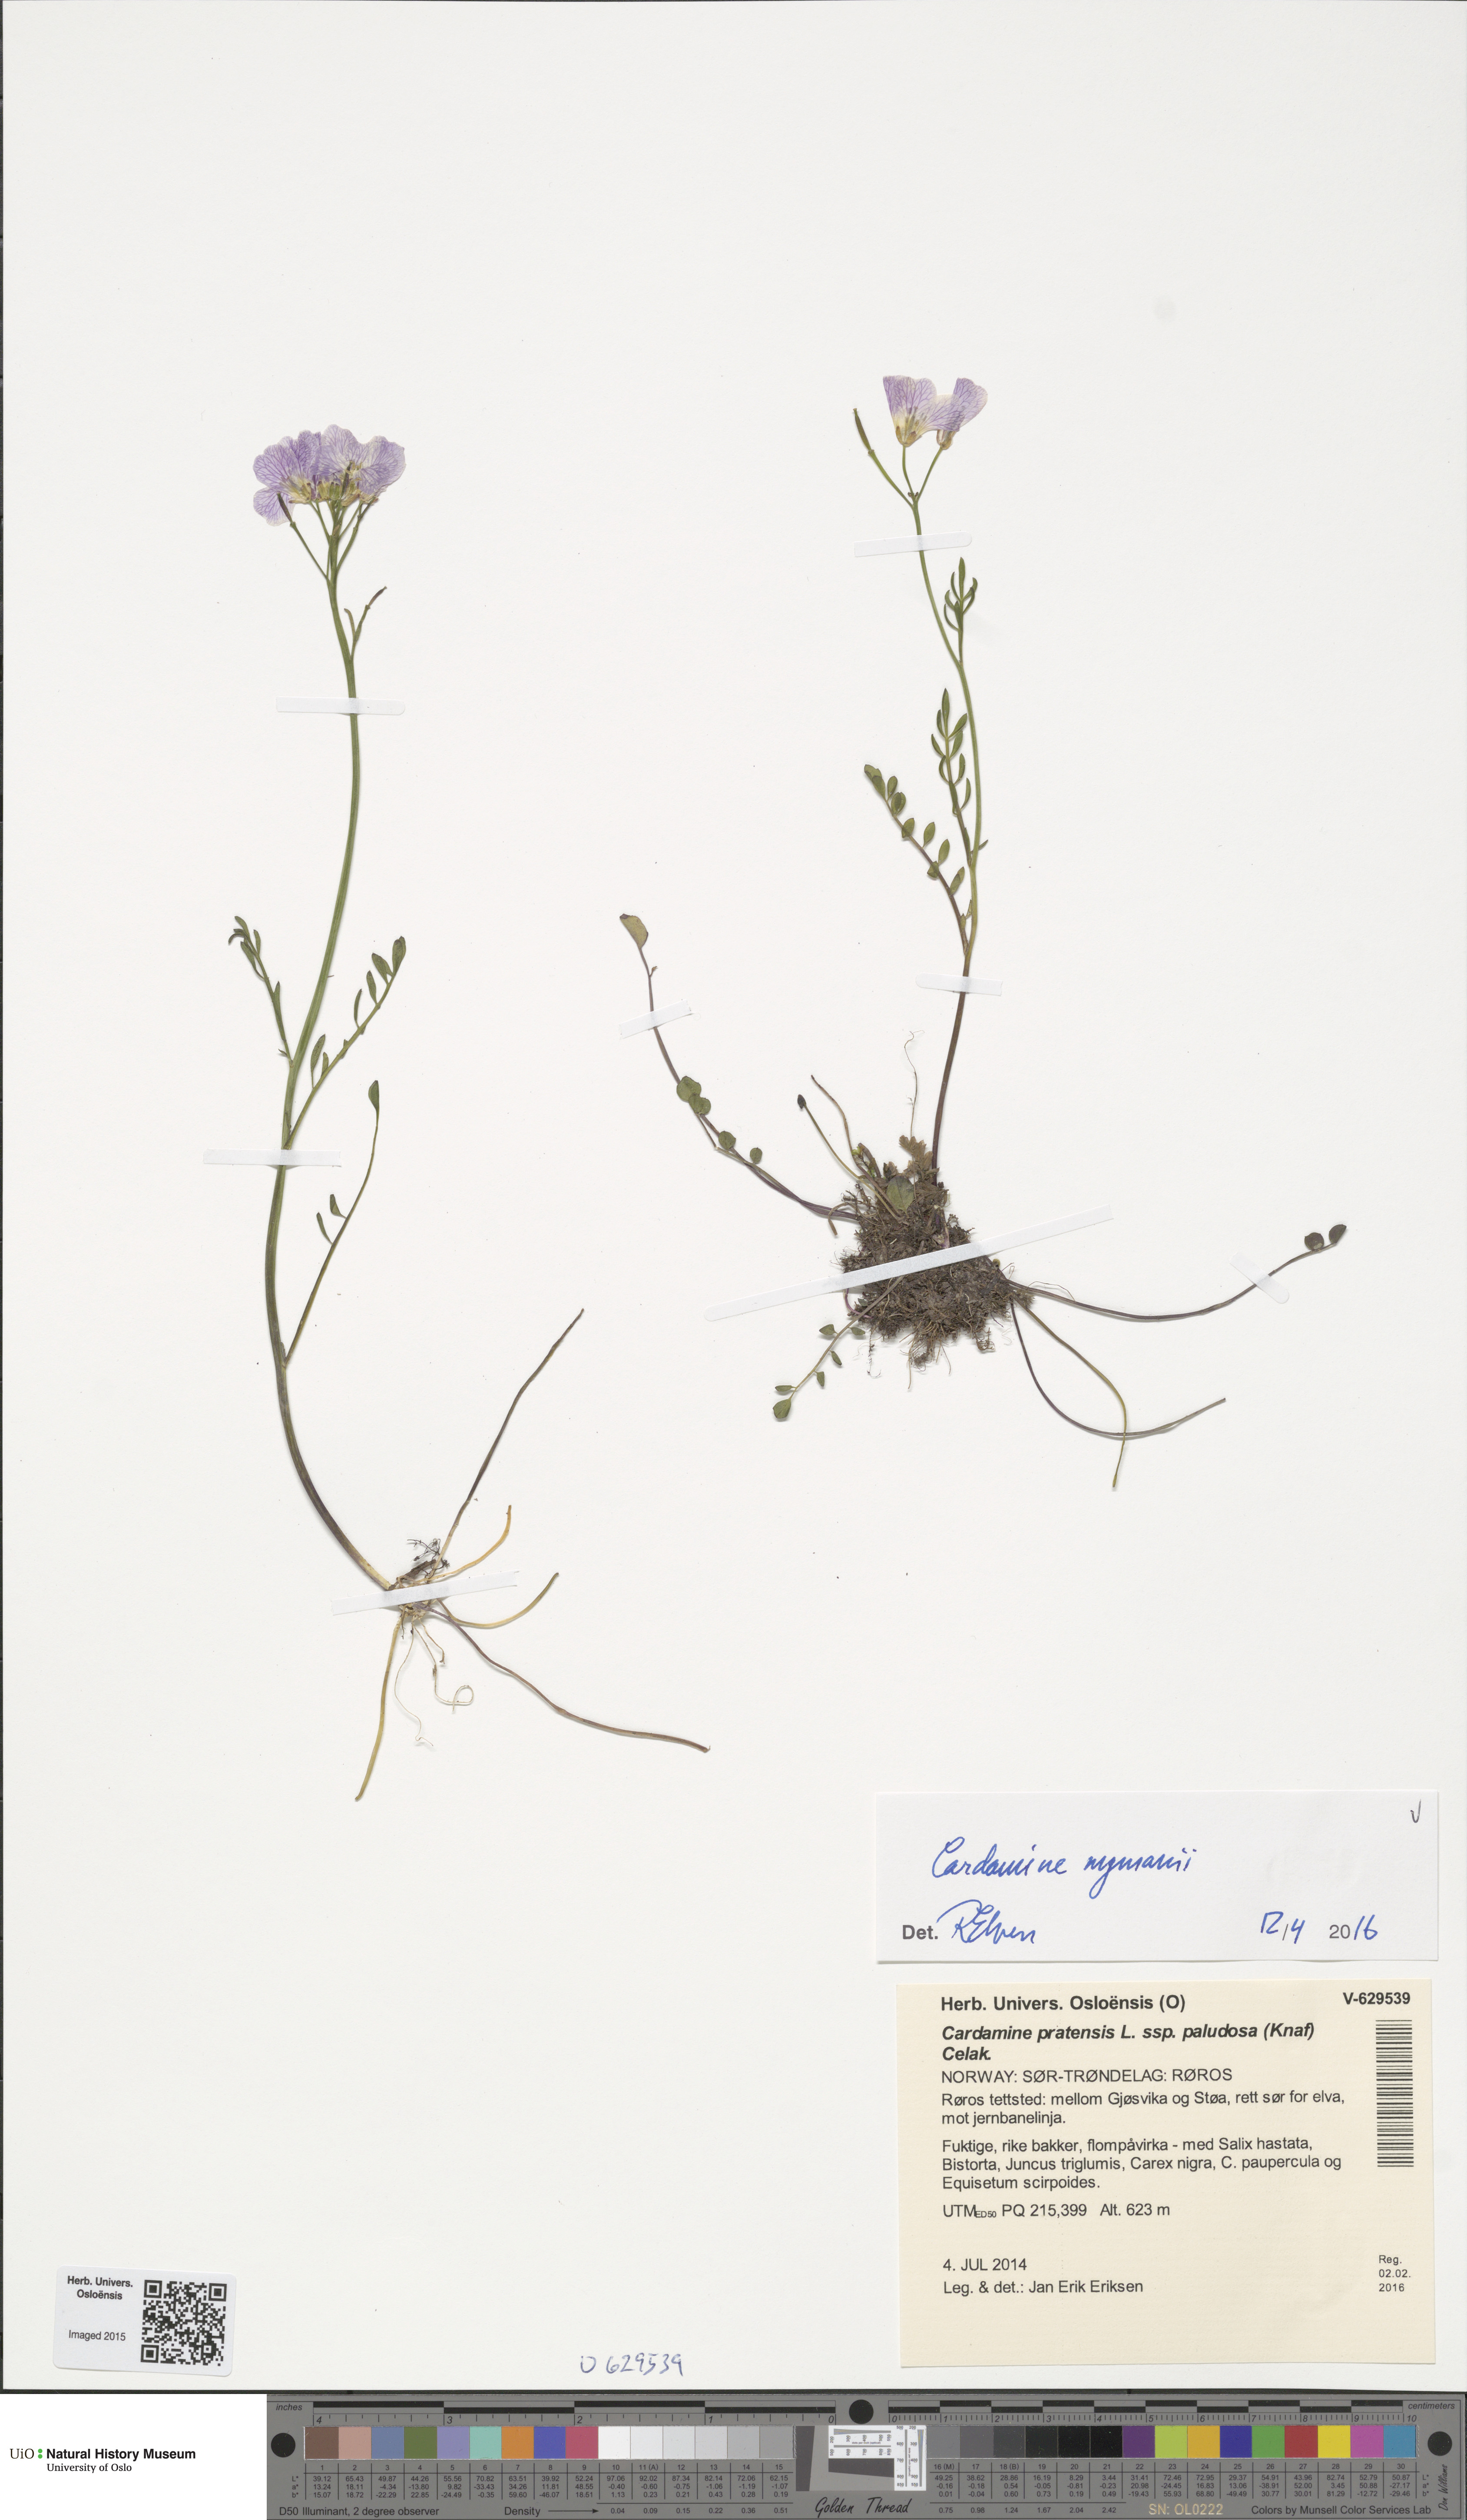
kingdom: Plantae
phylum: Tracheophyta
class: Magnoliopsida
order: Brassicales
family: Brassicaceae
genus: Cardamine
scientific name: Cardamine nymanii
